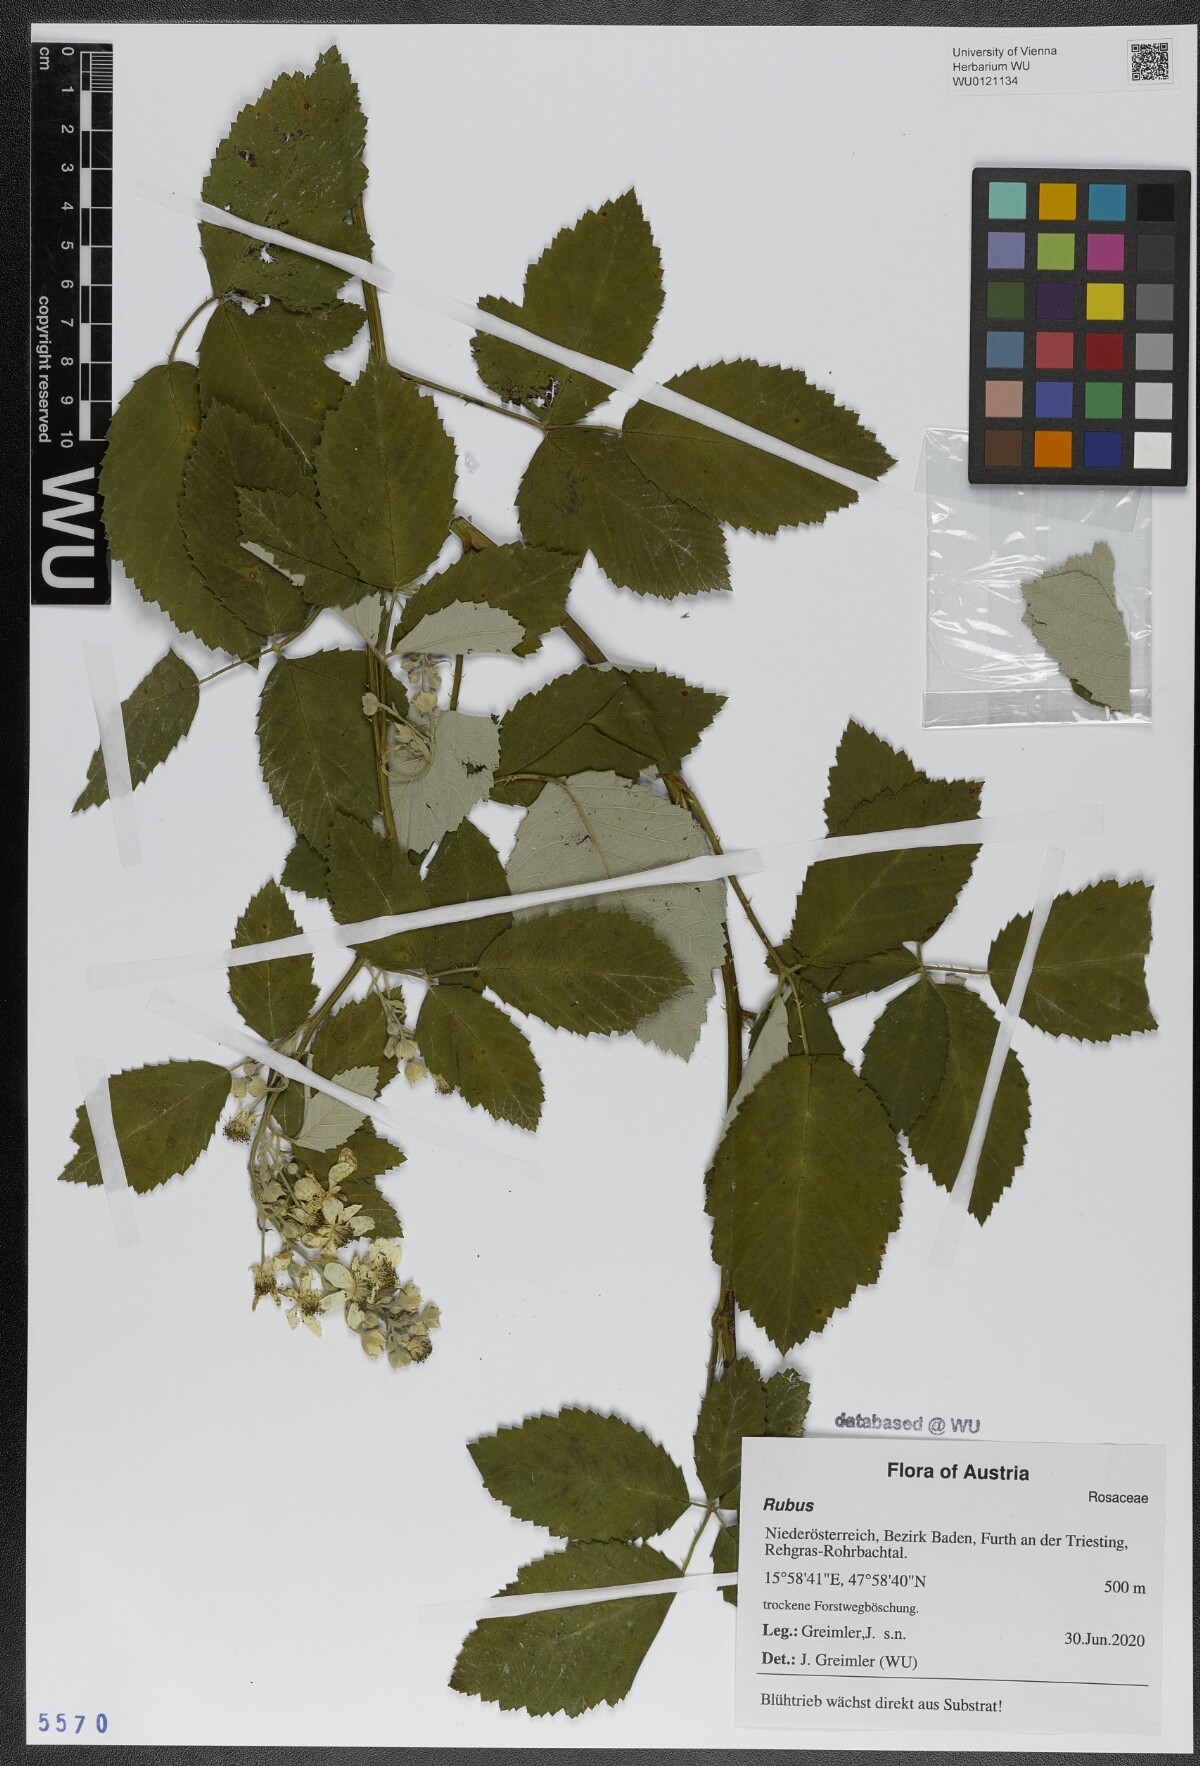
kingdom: Plantae
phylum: Tracheophyta
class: Magnoliopsida
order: Rosales
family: Rosaceae
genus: Rubus
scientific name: Rubus
